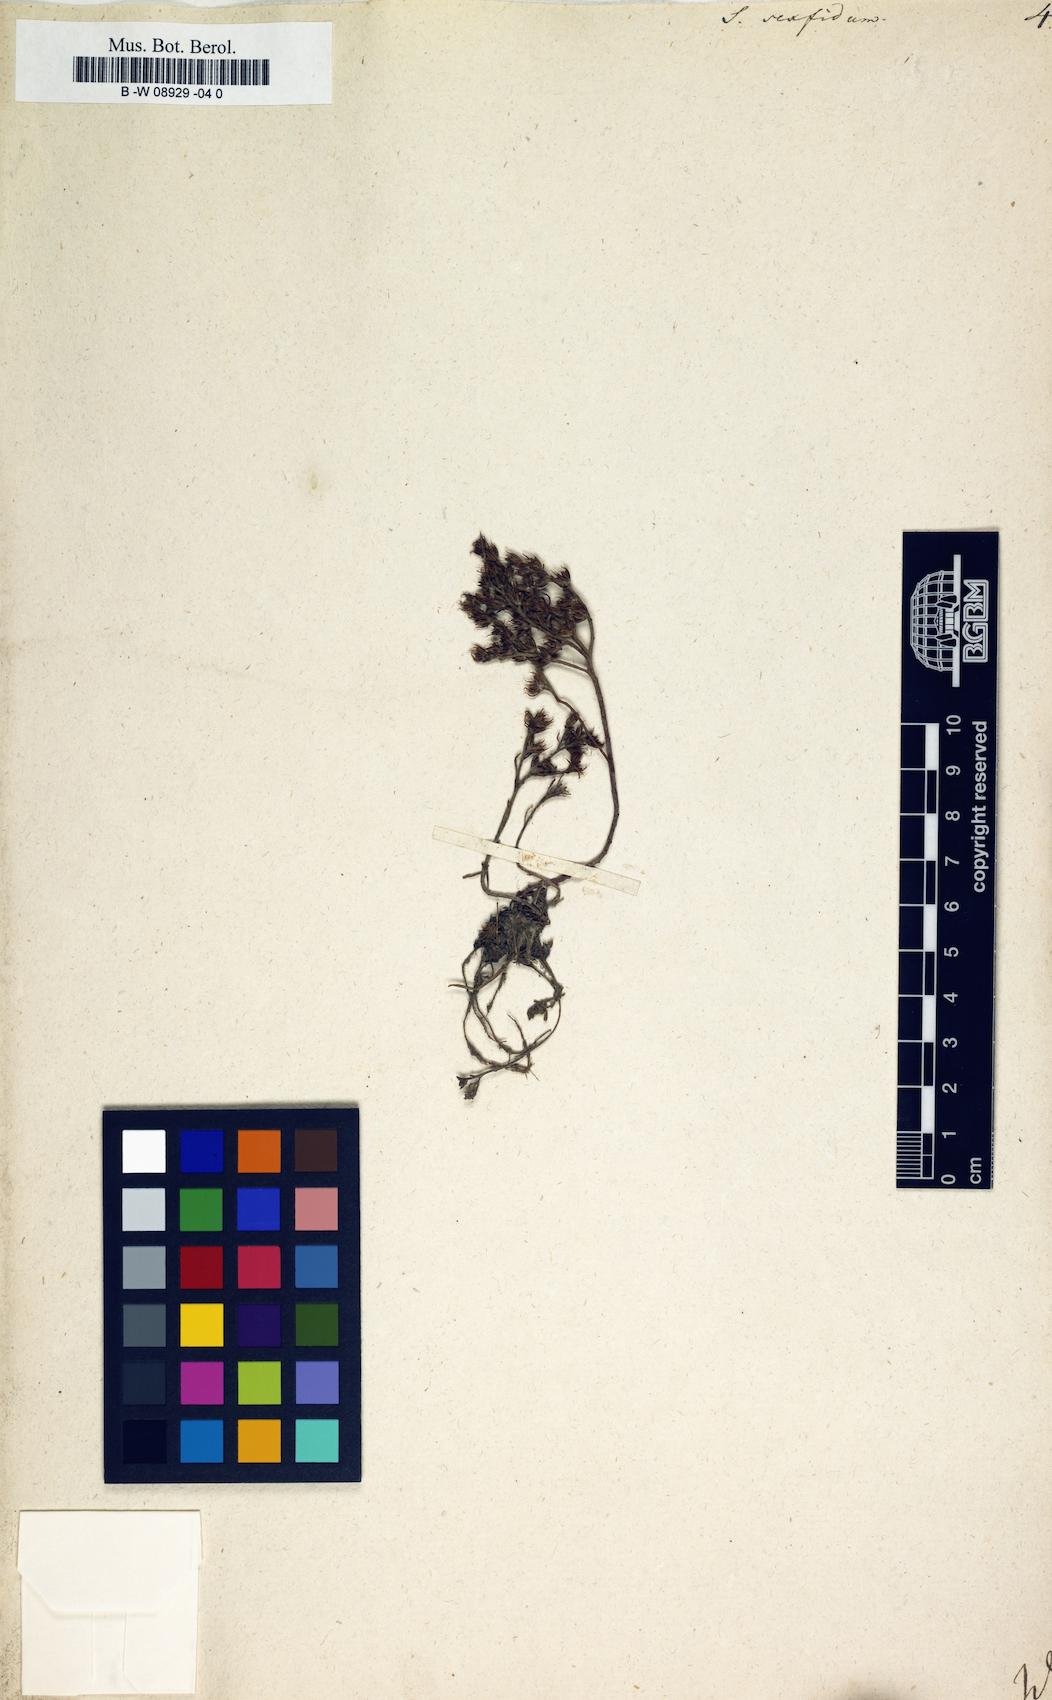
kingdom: Plantae
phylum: Tracheophyta
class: Magnoliopsida
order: Saxifragales
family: Crassulaceae
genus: Sedum
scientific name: Sedum hispanicum
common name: Spanish stonecrop
